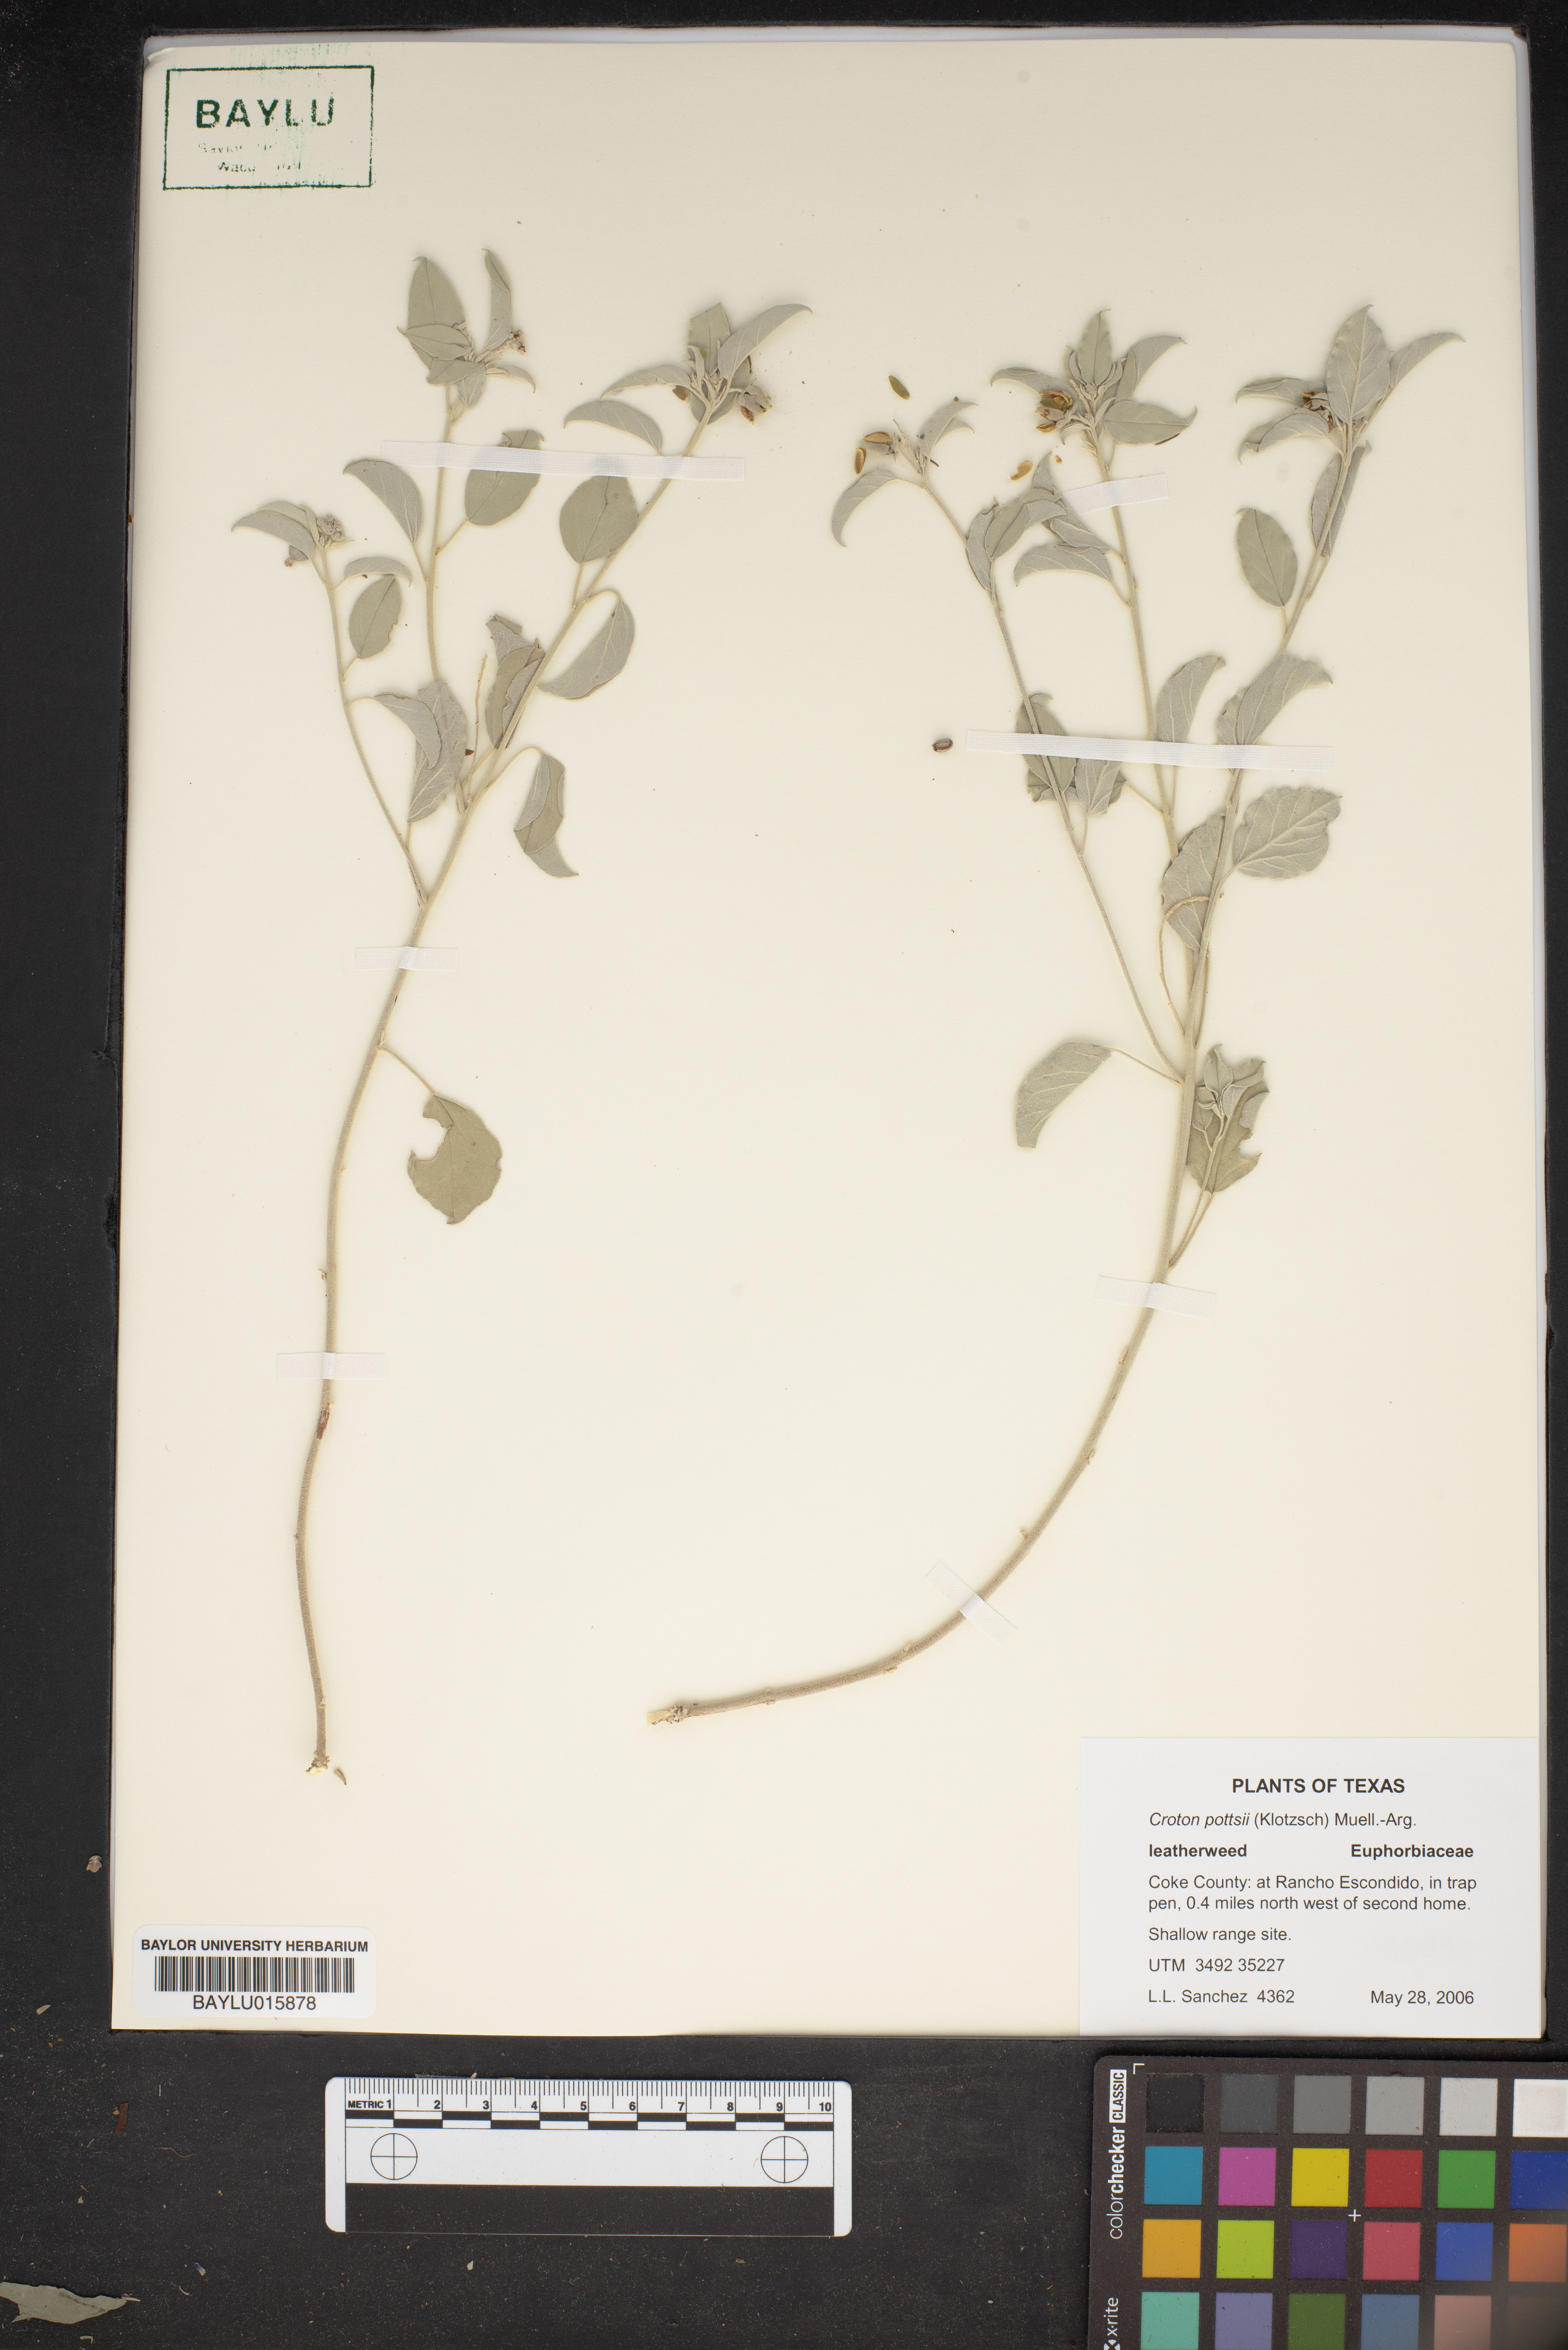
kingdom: Plantae
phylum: Tracheophyta
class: Magnoliopsida
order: Malpighiales
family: Euphorbiaceae
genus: Croton
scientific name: Croton pottsii
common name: Leatherweed
